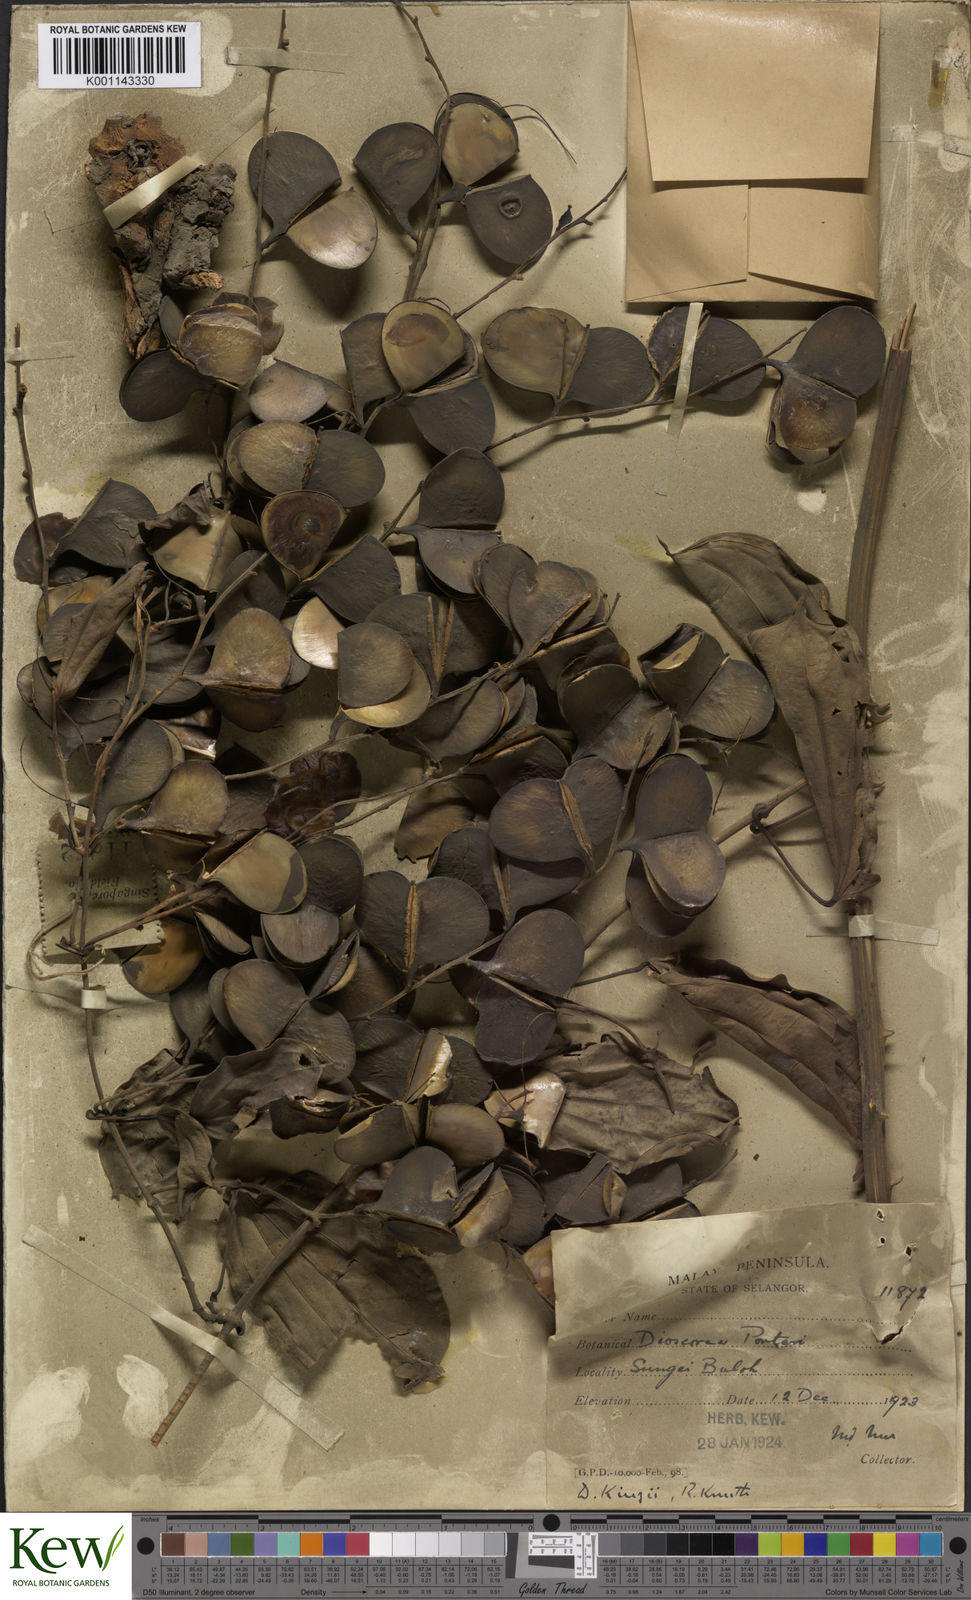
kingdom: Plantae
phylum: Tracheophyta
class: Liliopsida
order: Dioscoreales
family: Dioscoreaceae
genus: Dioscorea
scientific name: Dioscorea kingii
